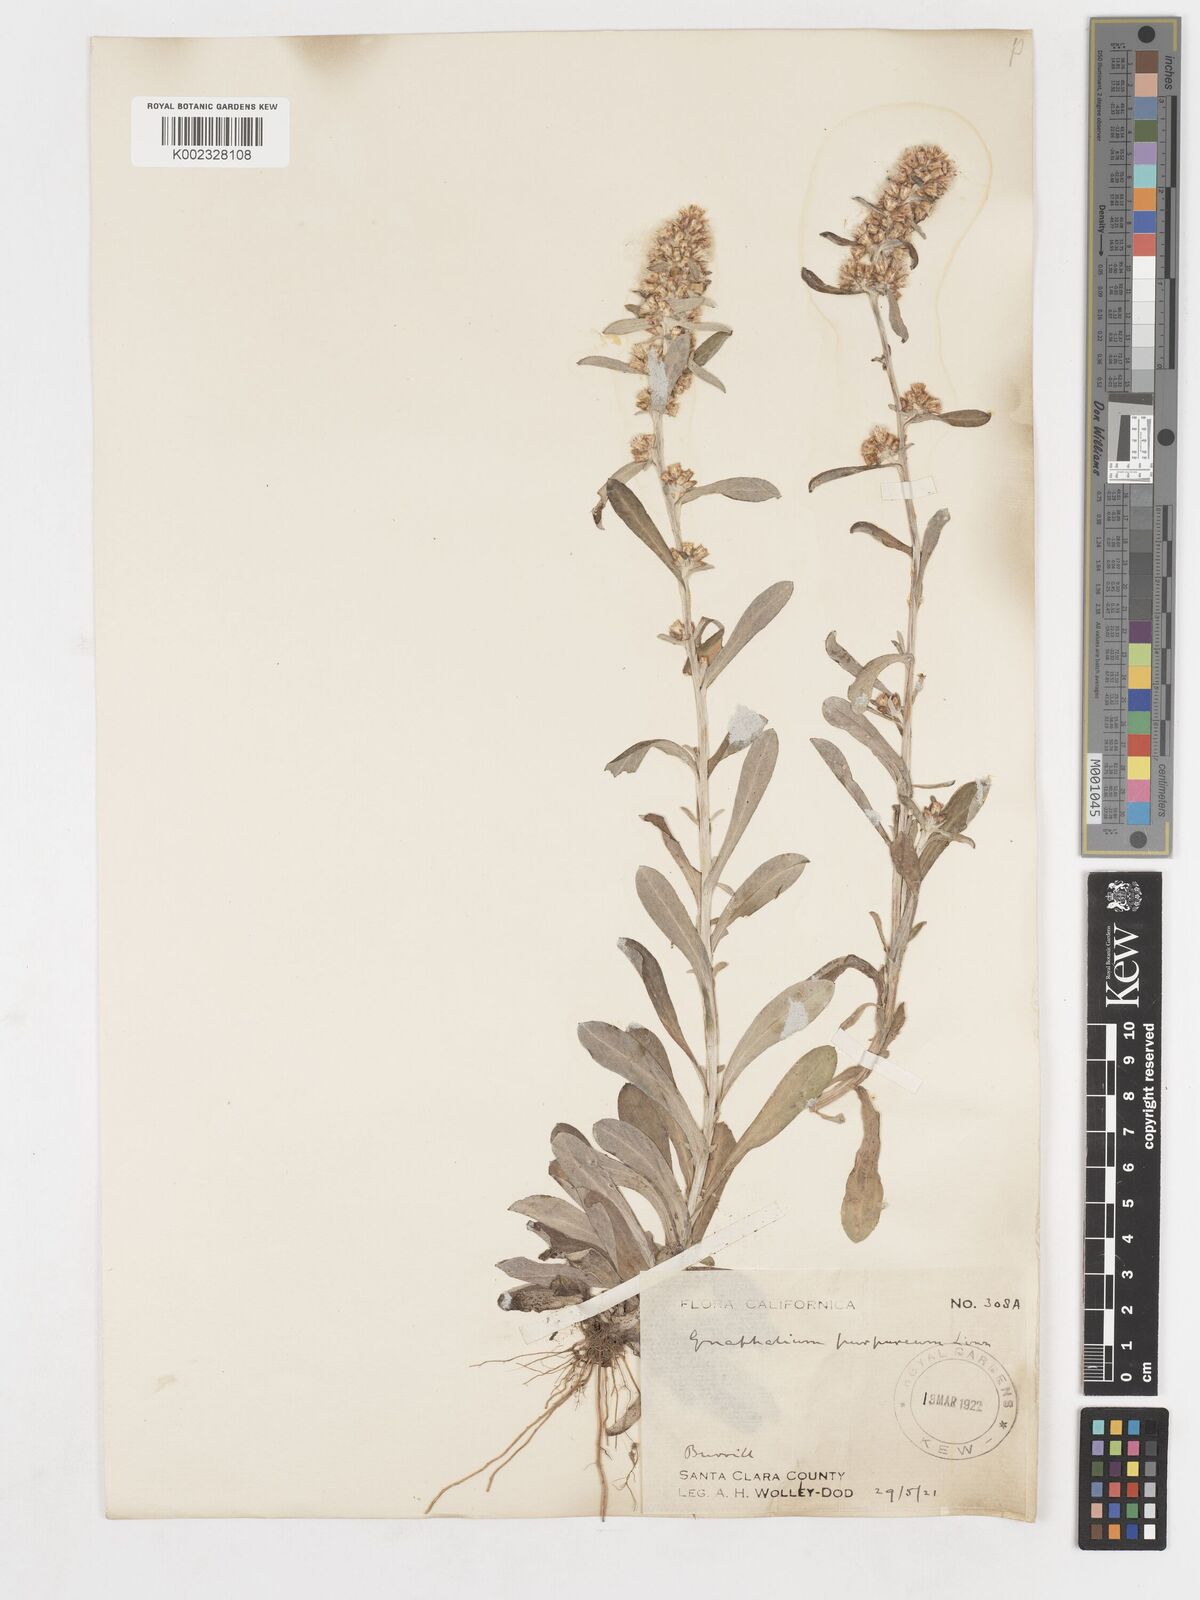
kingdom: Plantae
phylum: Tracheophyta
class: Magnoliopsida
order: Asterales
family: Asteraceae
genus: Gamochaeta
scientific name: Gamochaeta purpurea
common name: Purple cudweed
